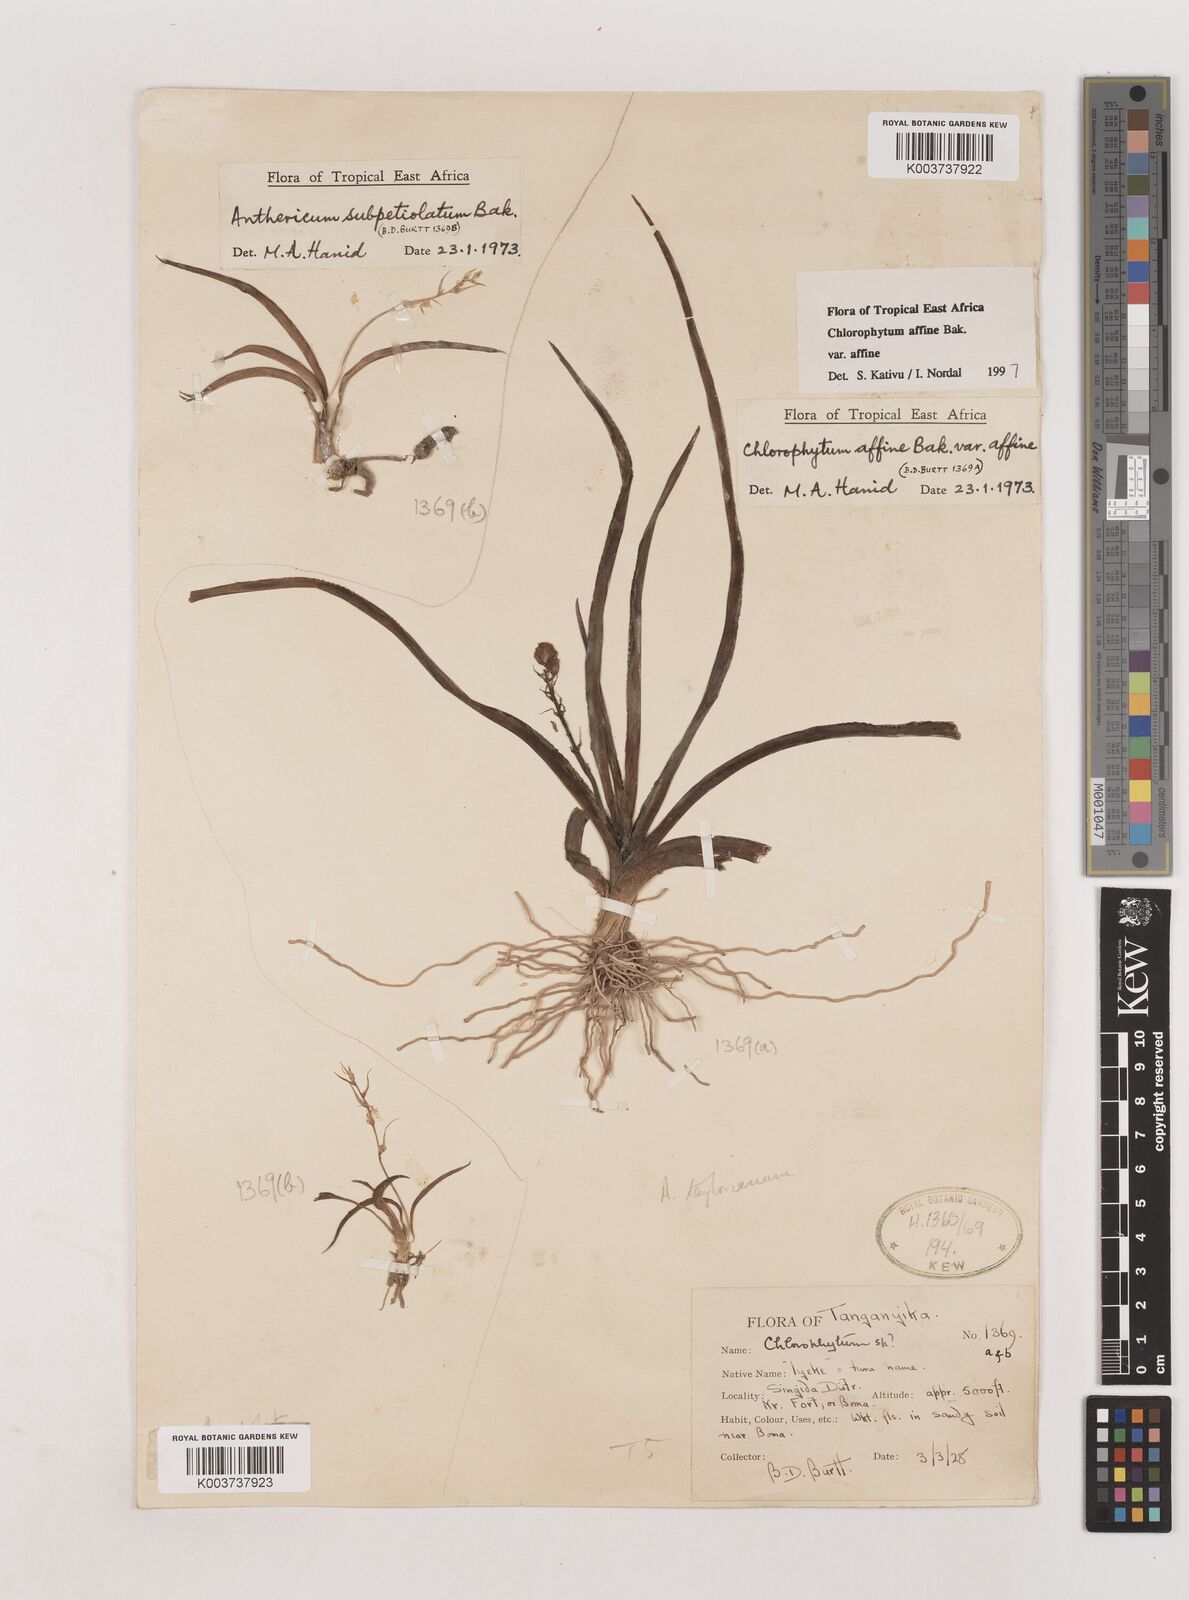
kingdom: Plantae
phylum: Tracheophyta
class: Liliopsida
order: Asparagales
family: Asparagaceae
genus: Chlorophytum
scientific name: Chlorophytum affine
